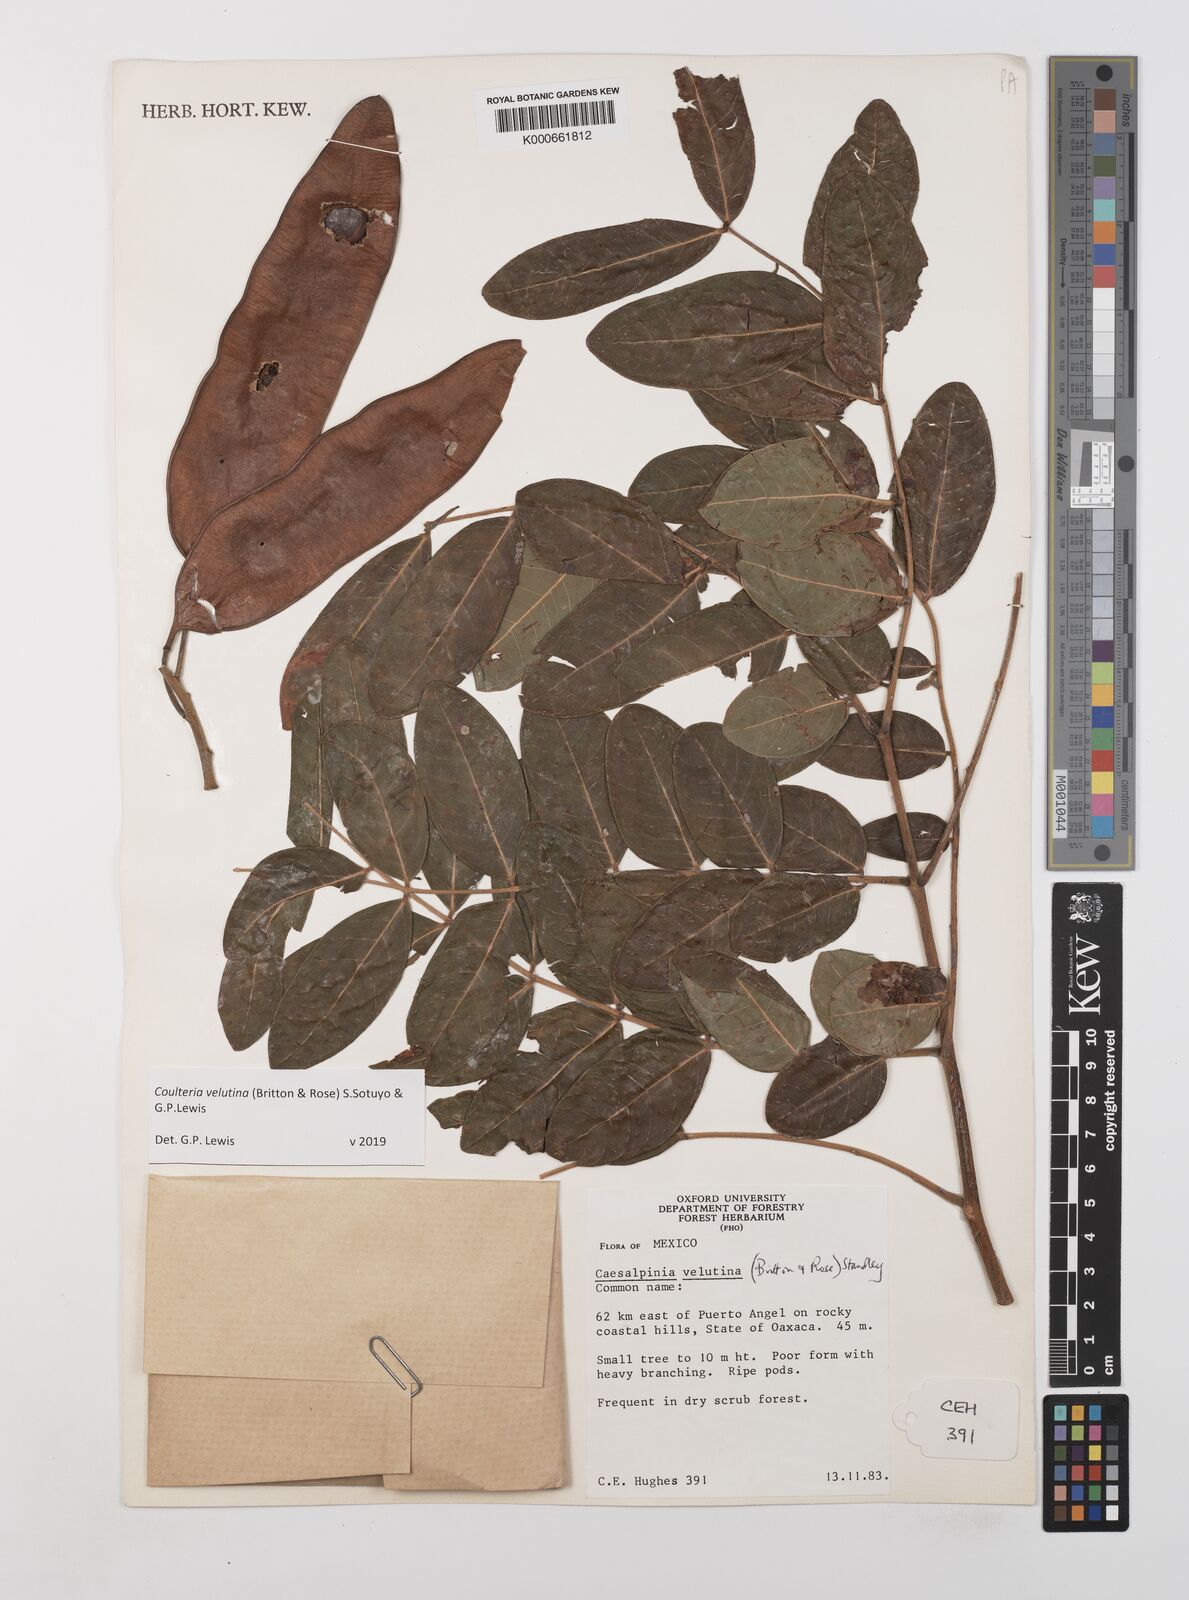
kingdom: Plantae
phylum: Tracheophyta
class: Magnoliopsida
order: Fabales
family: Fabaceae
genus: Coulteria
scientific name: Coulteria velutina
